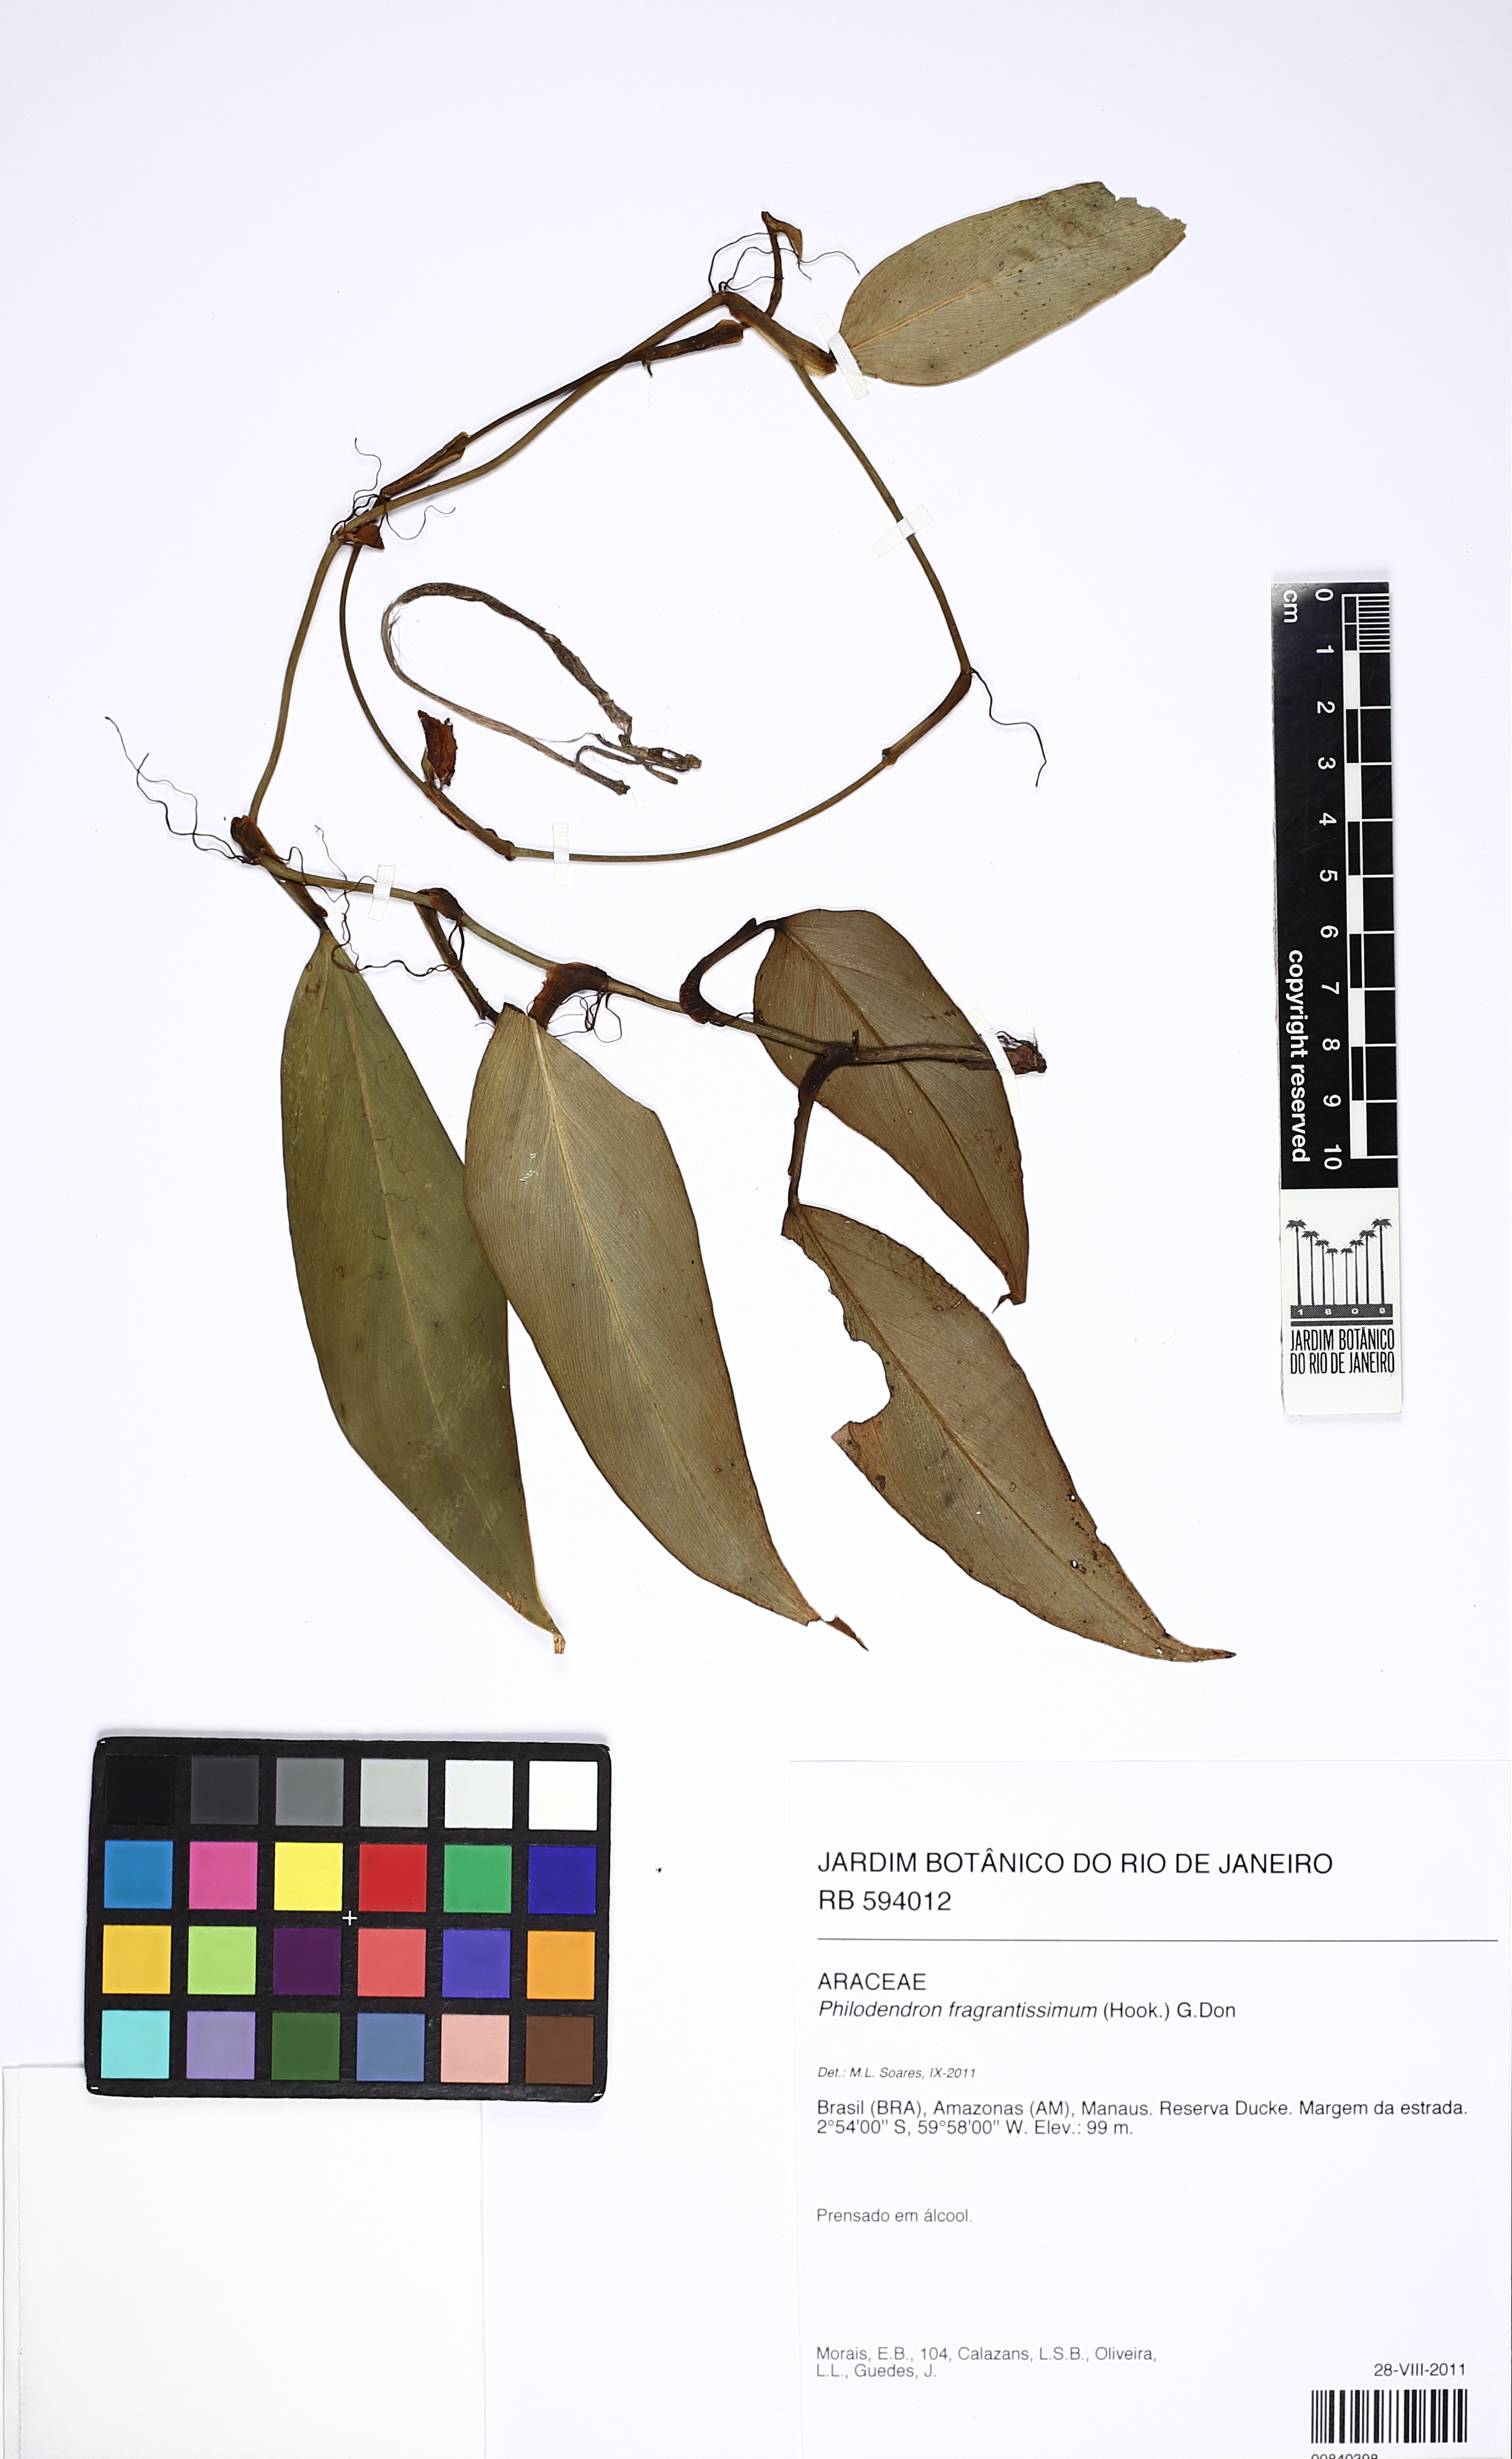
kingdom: Plantae
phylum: Tracheophyta
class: Liliopsida
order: Alismatales
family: Araceae
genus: Philodendron
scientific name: Philodendron fragrantissimum
